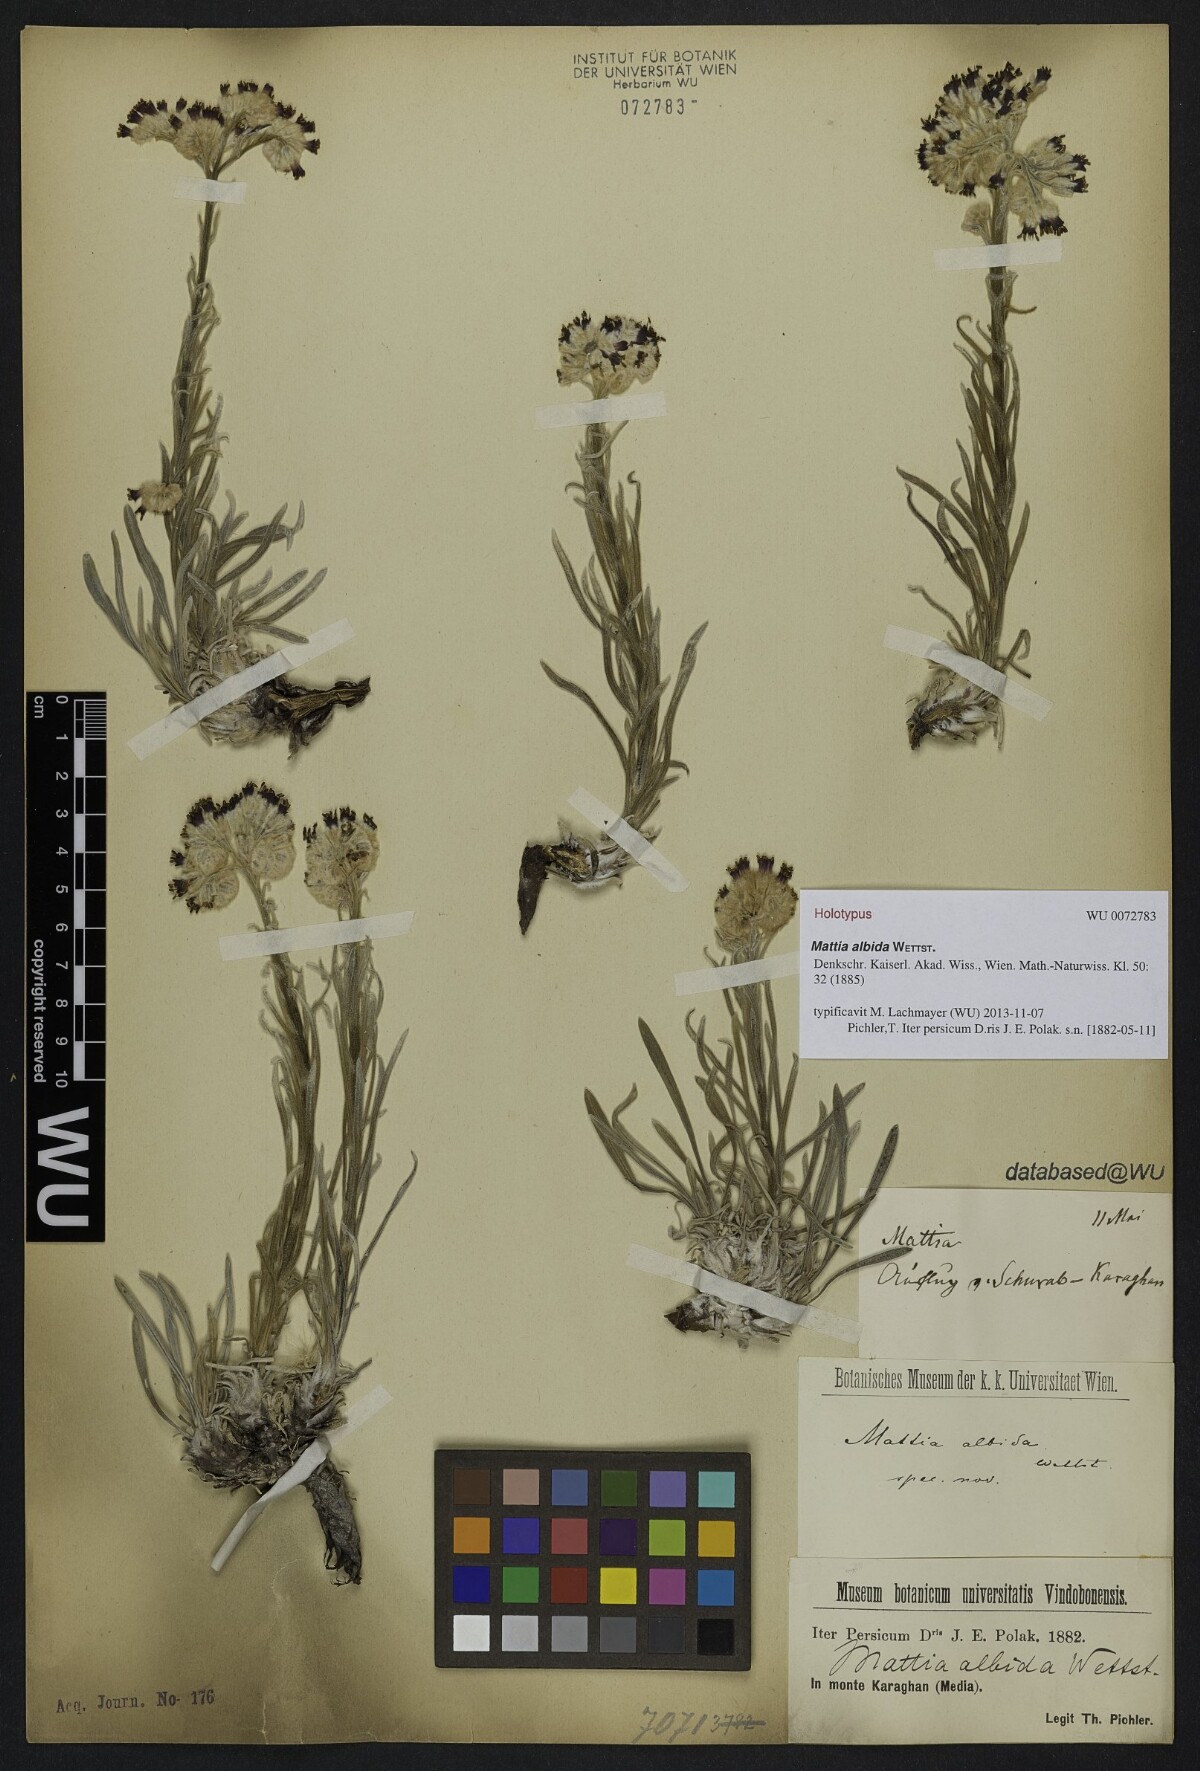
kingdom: Plantae
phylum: Tracheophyta
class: Magnoliopsida
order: Boraginales
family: Boraginaceae
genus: Rindera
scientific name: Rindera albida
